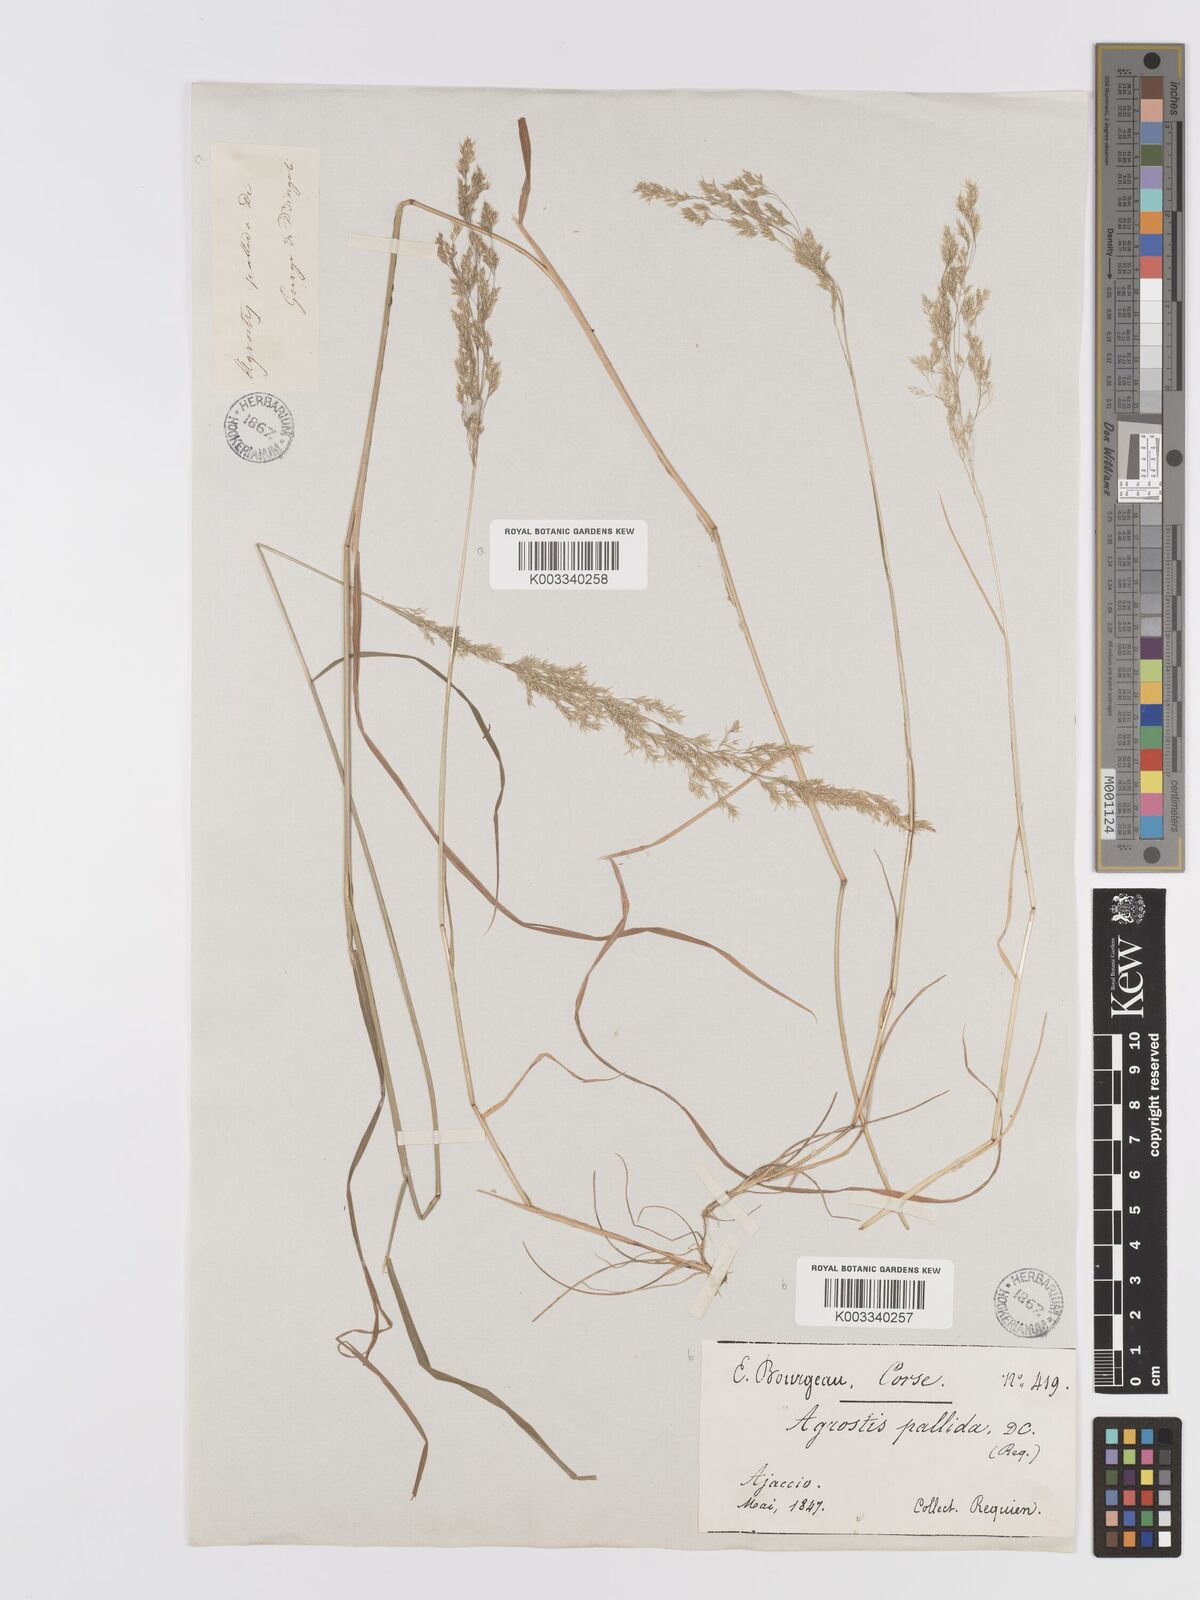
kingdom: Plantae
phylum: Tracheophyta
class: Liliopsida
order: Poales
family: Poaceae
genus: Agrostis
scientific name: Agrostis pourretii
